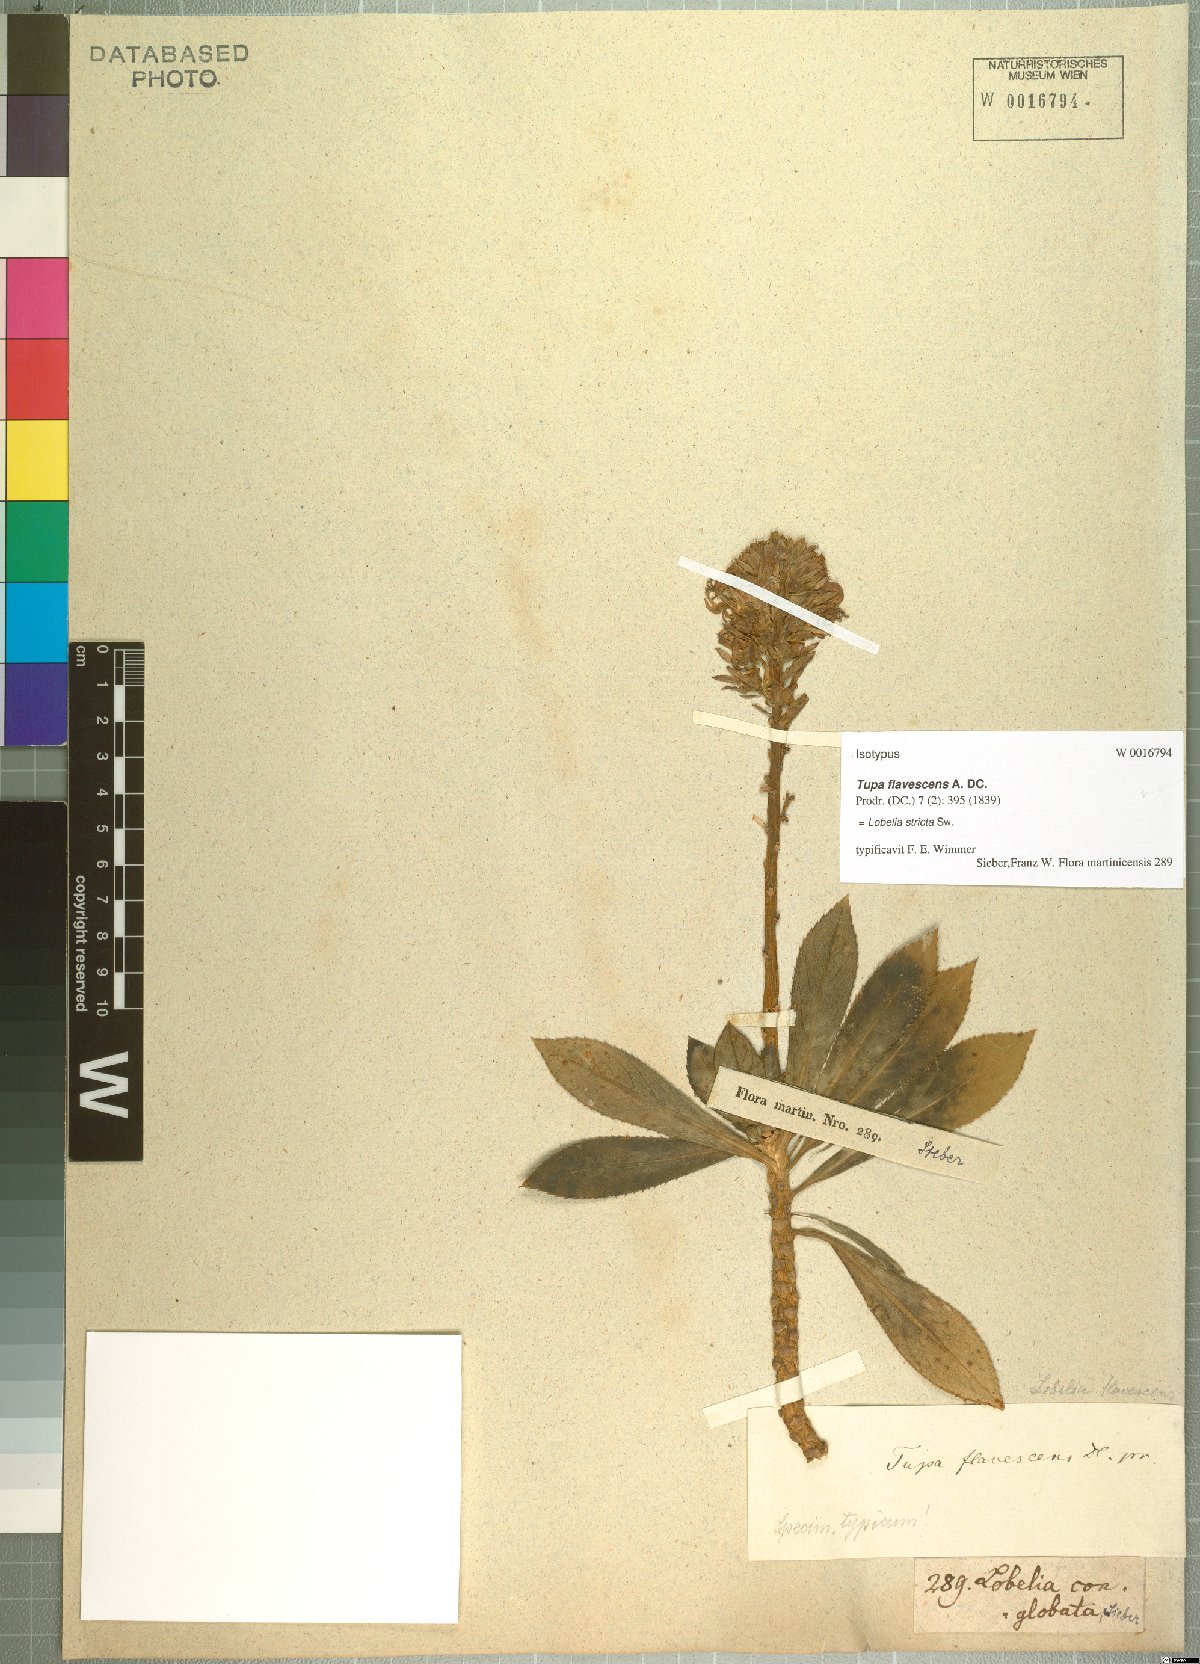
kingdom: Plantae
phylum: Tracheophyta
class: Magnoliopsida
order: Asterales
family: Campanulaceae
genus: Lobelia
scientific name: Lobelia stricta
